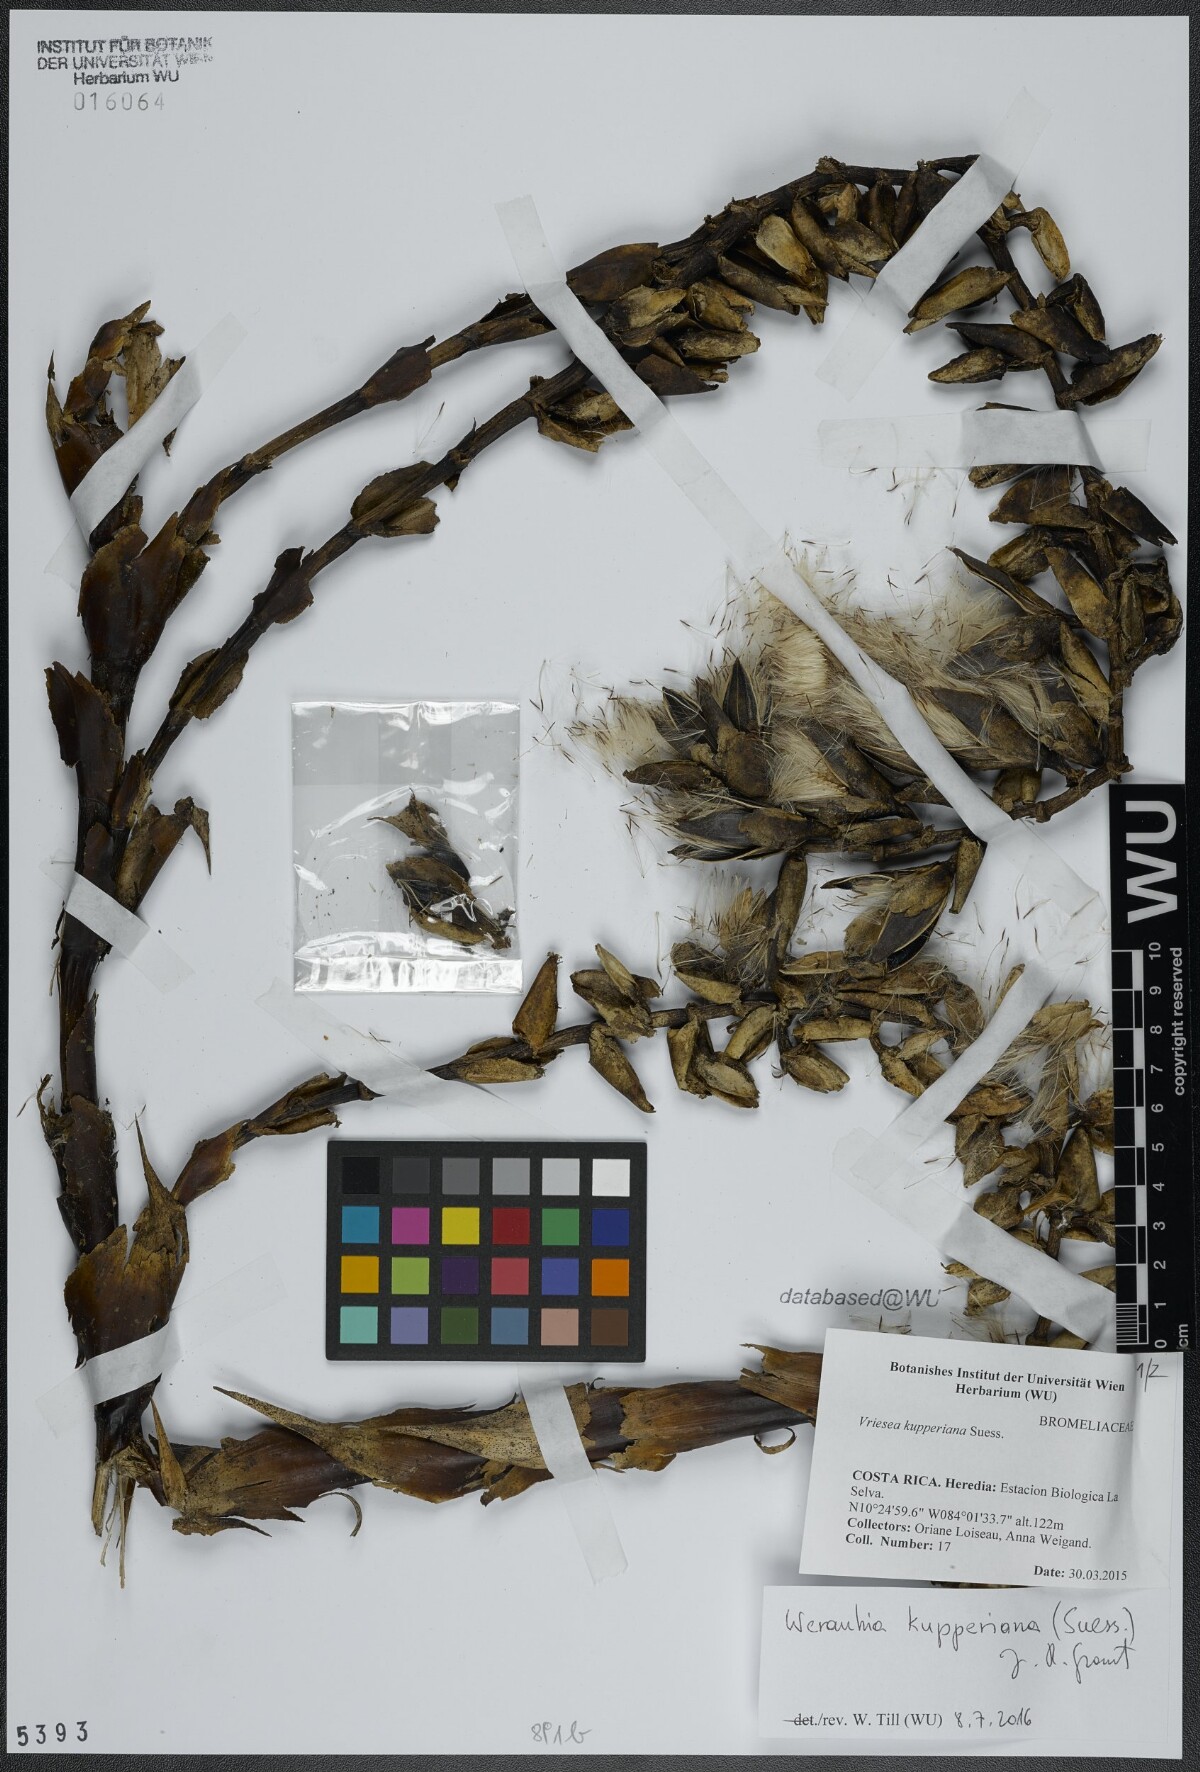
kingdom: Plantae
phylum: Tracheophyta
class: Liliopsida
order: Poales
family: Bromeliaceae
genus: Werauhia
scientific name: Werauhia kupperiana
